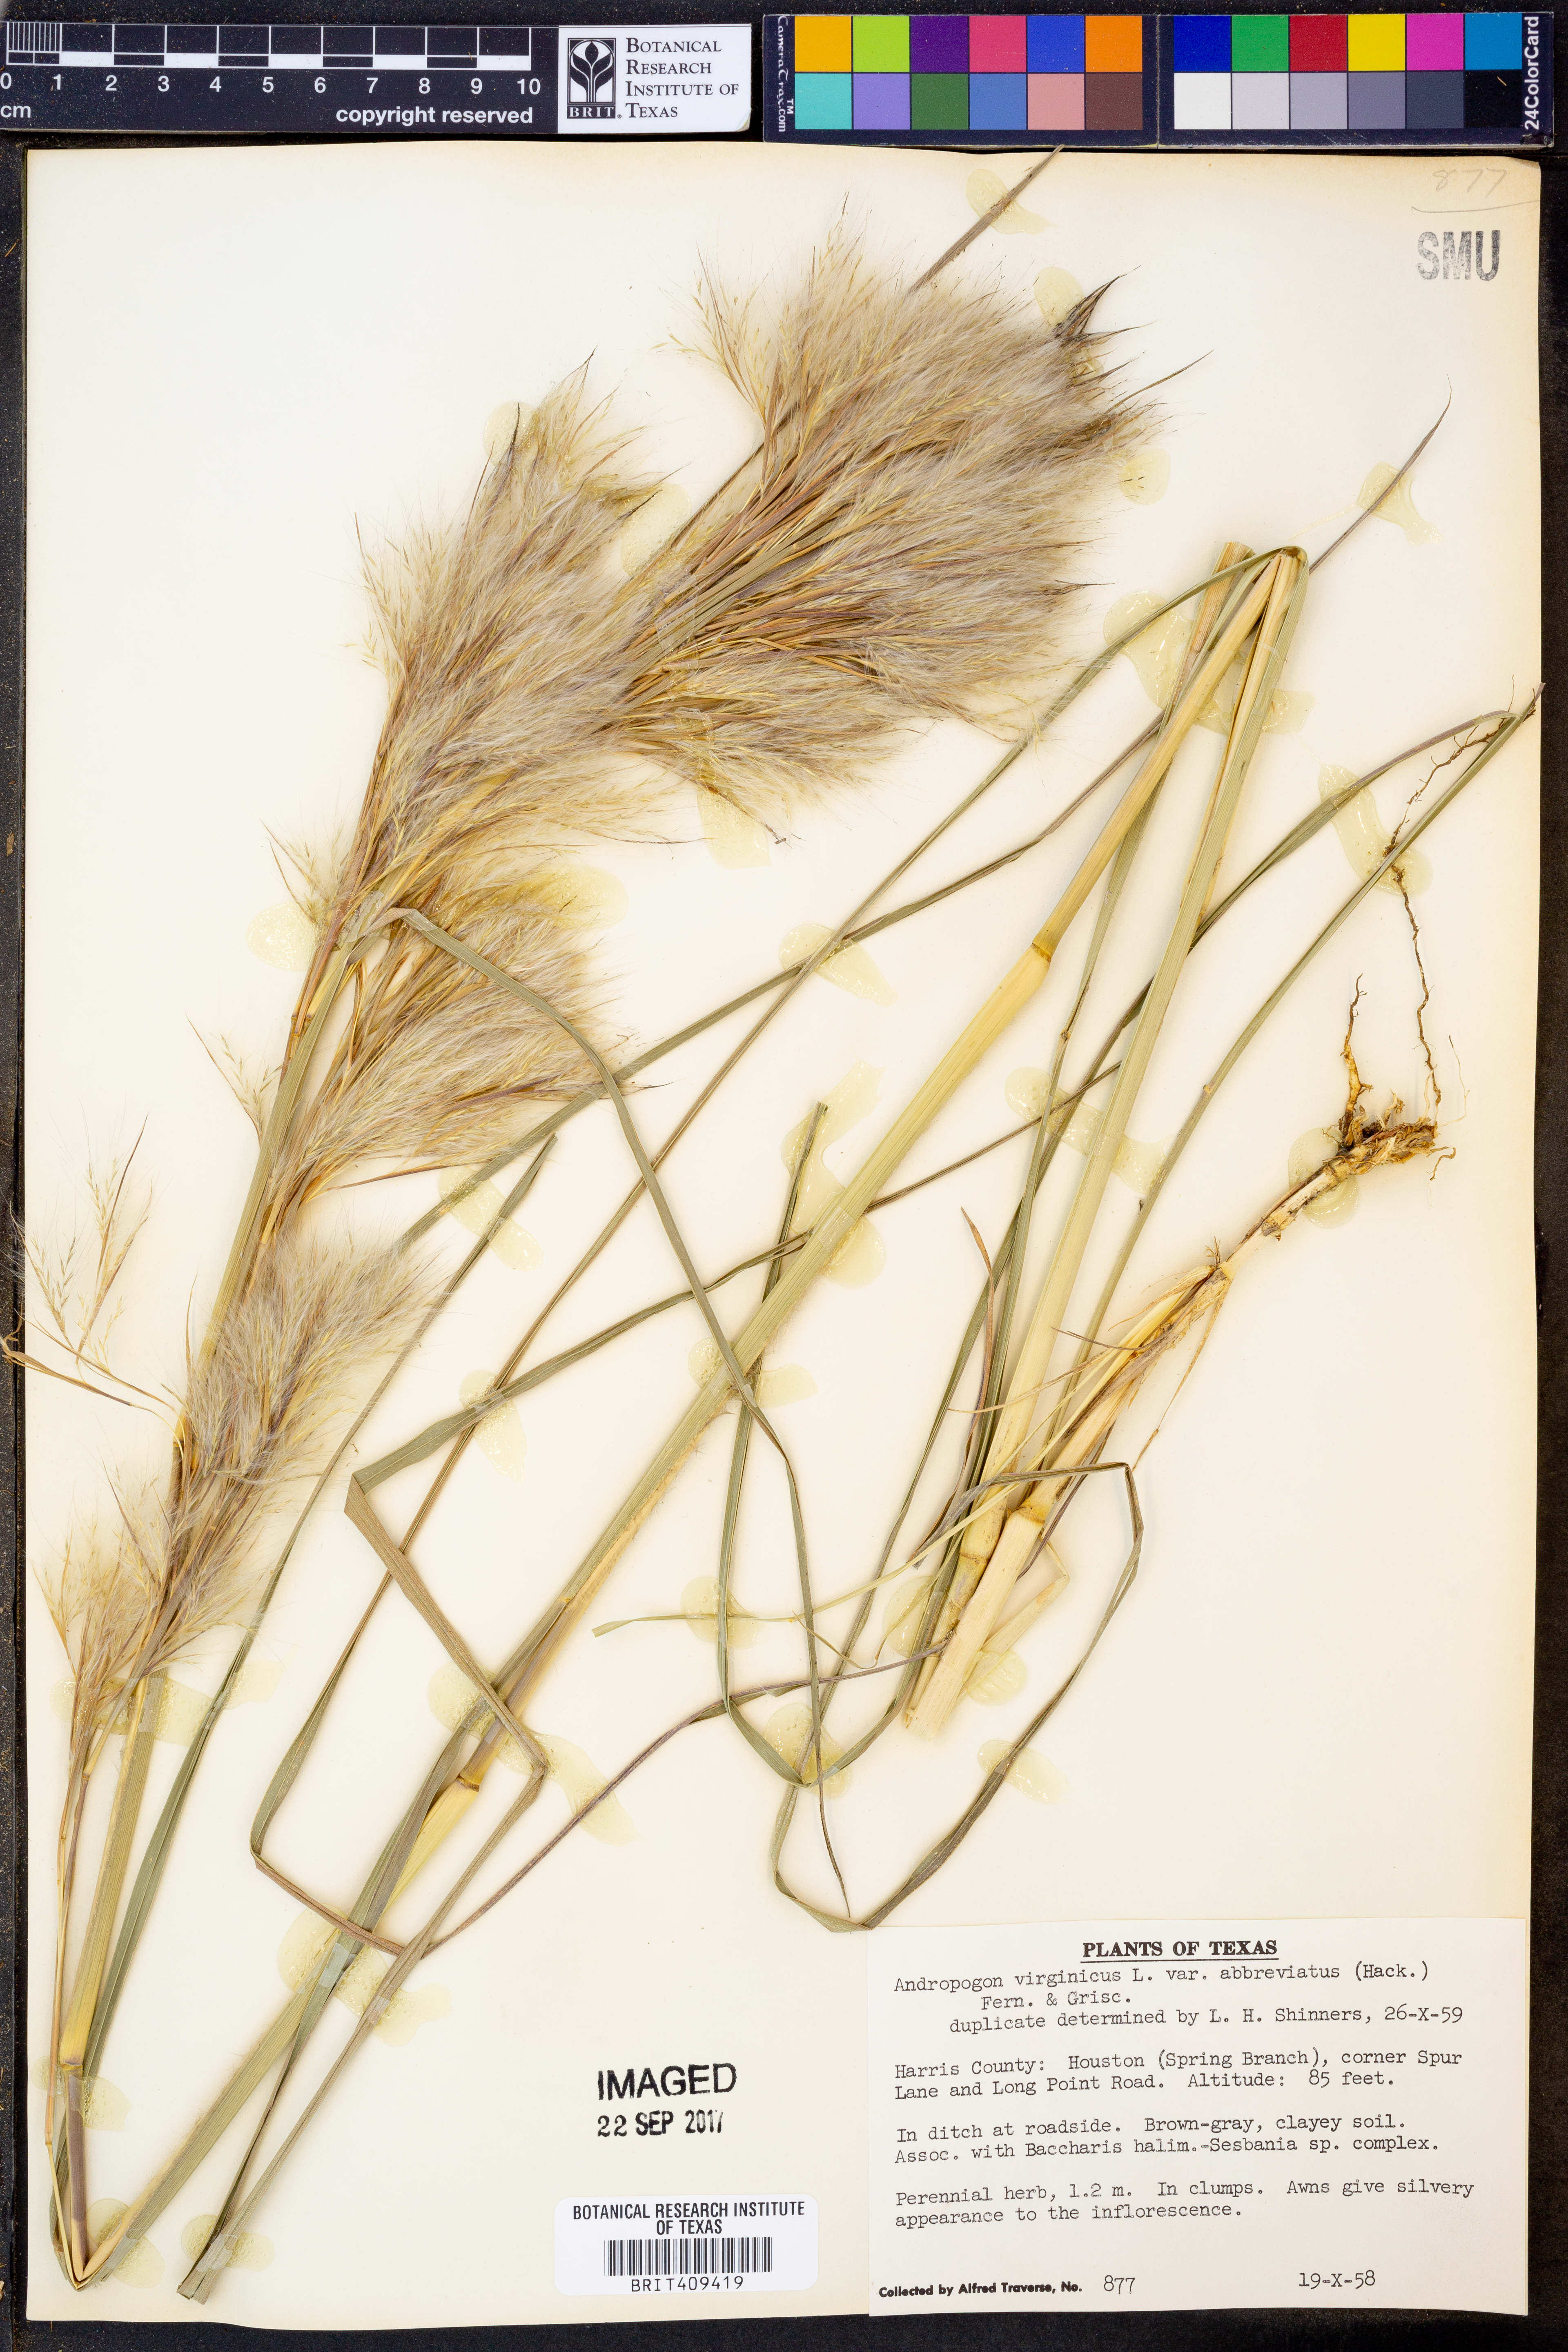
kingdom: Plantae
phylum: Tracheophyta
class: Liliopsida
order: Poales
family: Poaceae
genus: Andropogon
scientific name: Andropogon glomeratus
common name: Bushy beard grass
